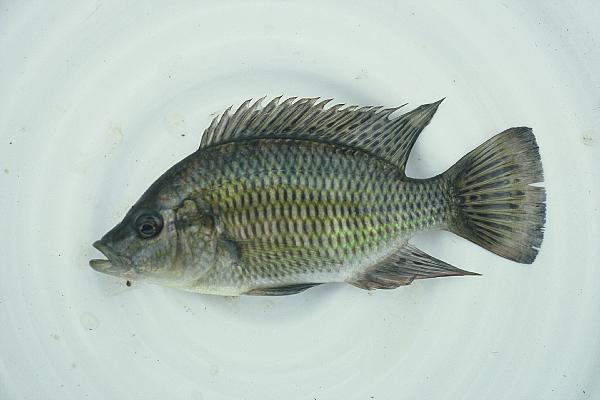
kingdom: Animalia
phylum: Chordata
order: Perciformes
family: Cichlidae
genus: Sargochromis
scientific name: Sargochromis carlottae
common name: Rainbow happy
